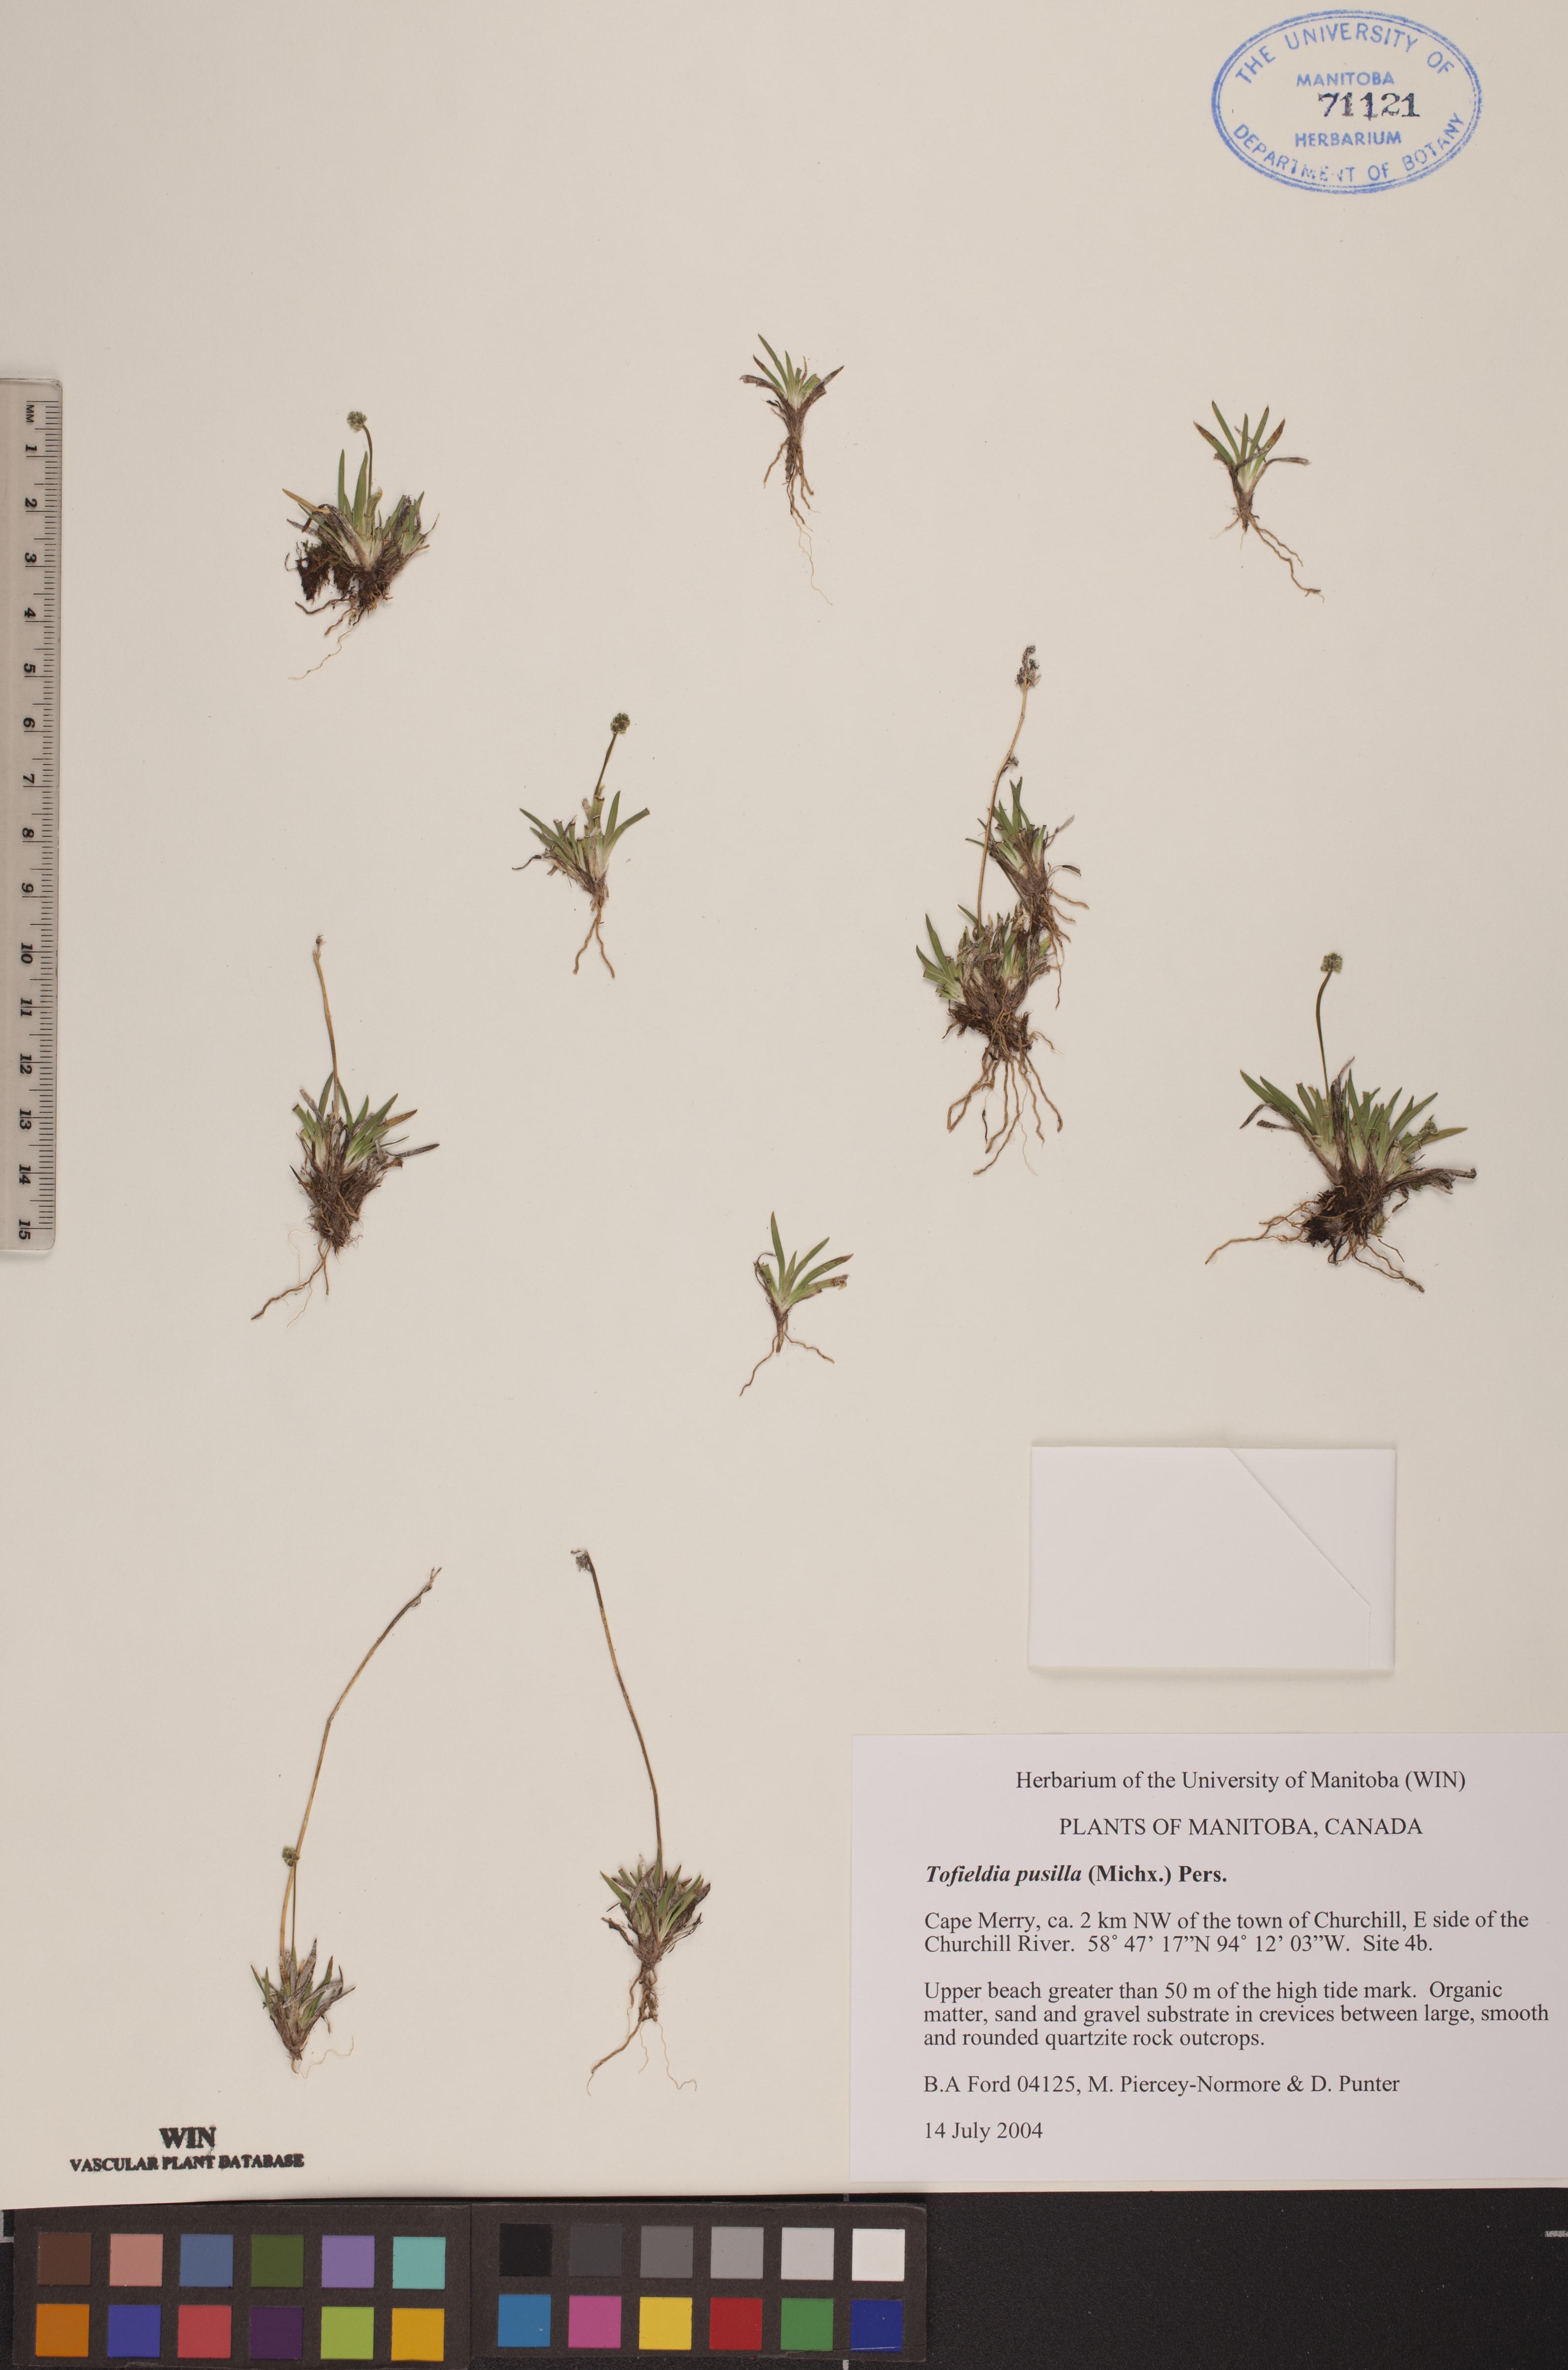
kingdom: Plantae
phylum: Tracheophyta
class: Liliopsida
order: Alismatales
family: Tofieldiaceae
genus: Tofieldia
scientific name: Tofieldia pusilla
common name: Scottish false asphodel
